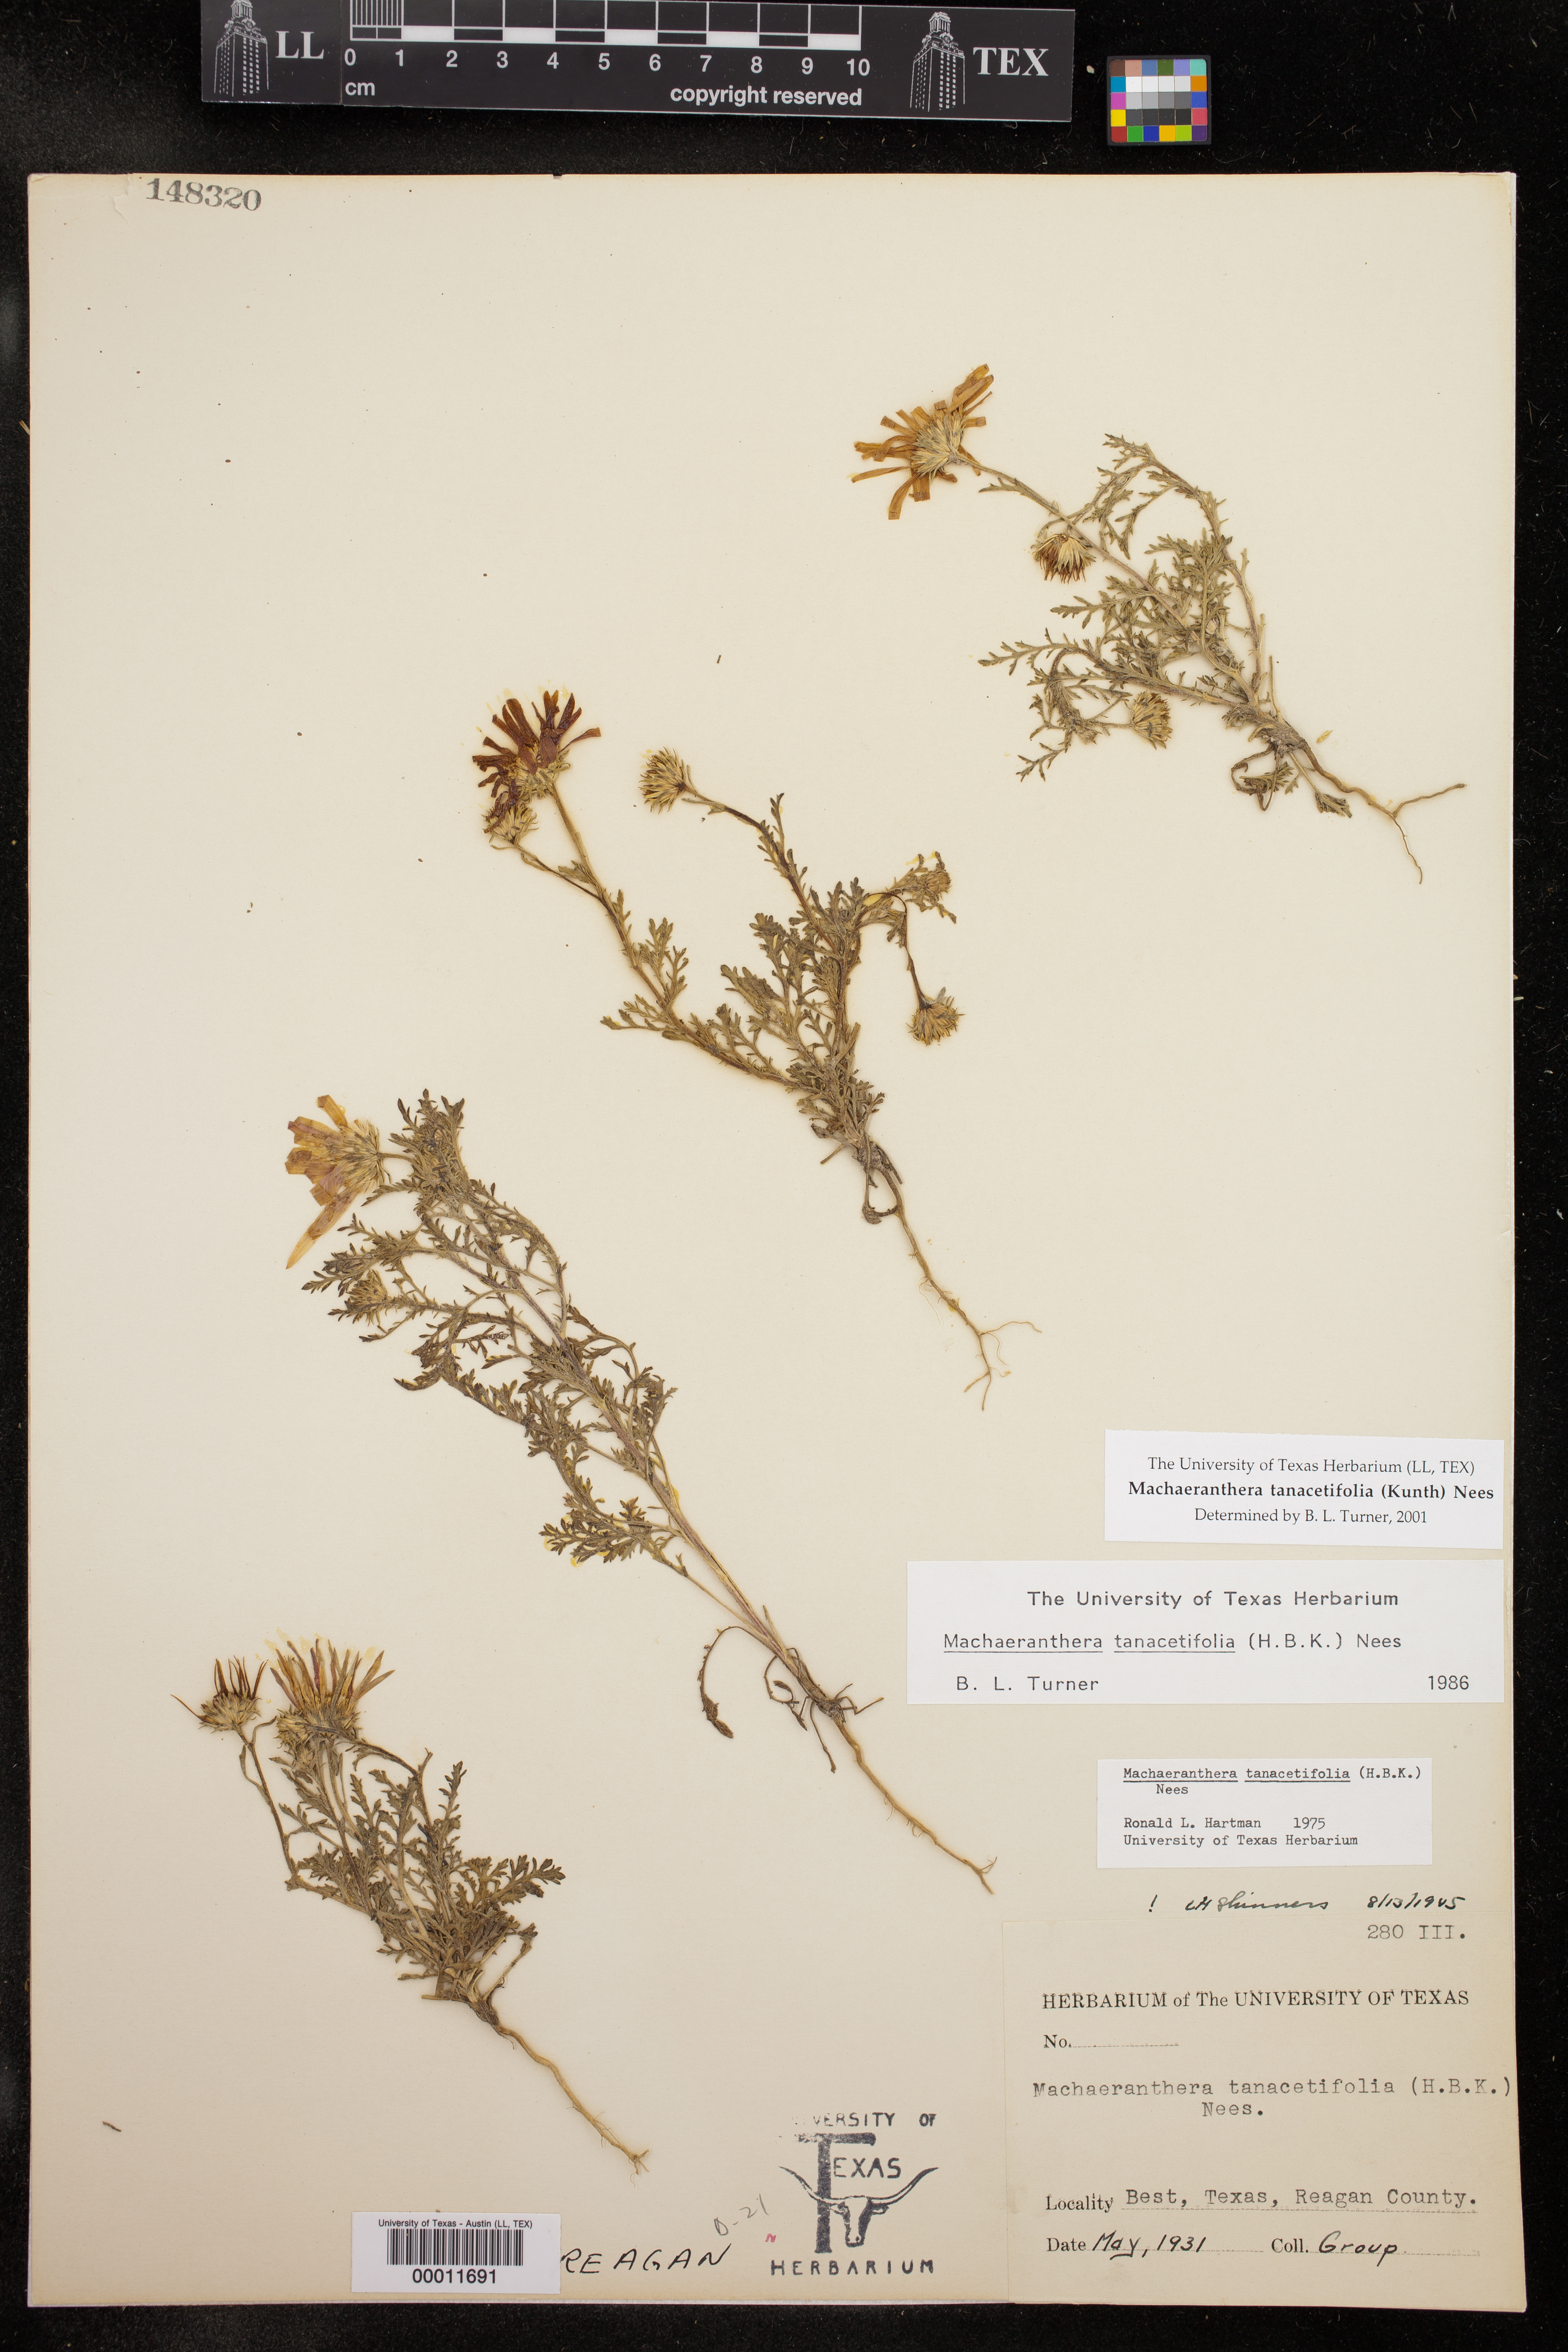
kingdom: Plantae
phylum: Tracheophyta
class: Magnoliopsida
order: Asterales
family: Asteraceae
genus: Machaeranthera
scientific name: Machaeranthera tanacetifolia
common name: Tansy-aster
